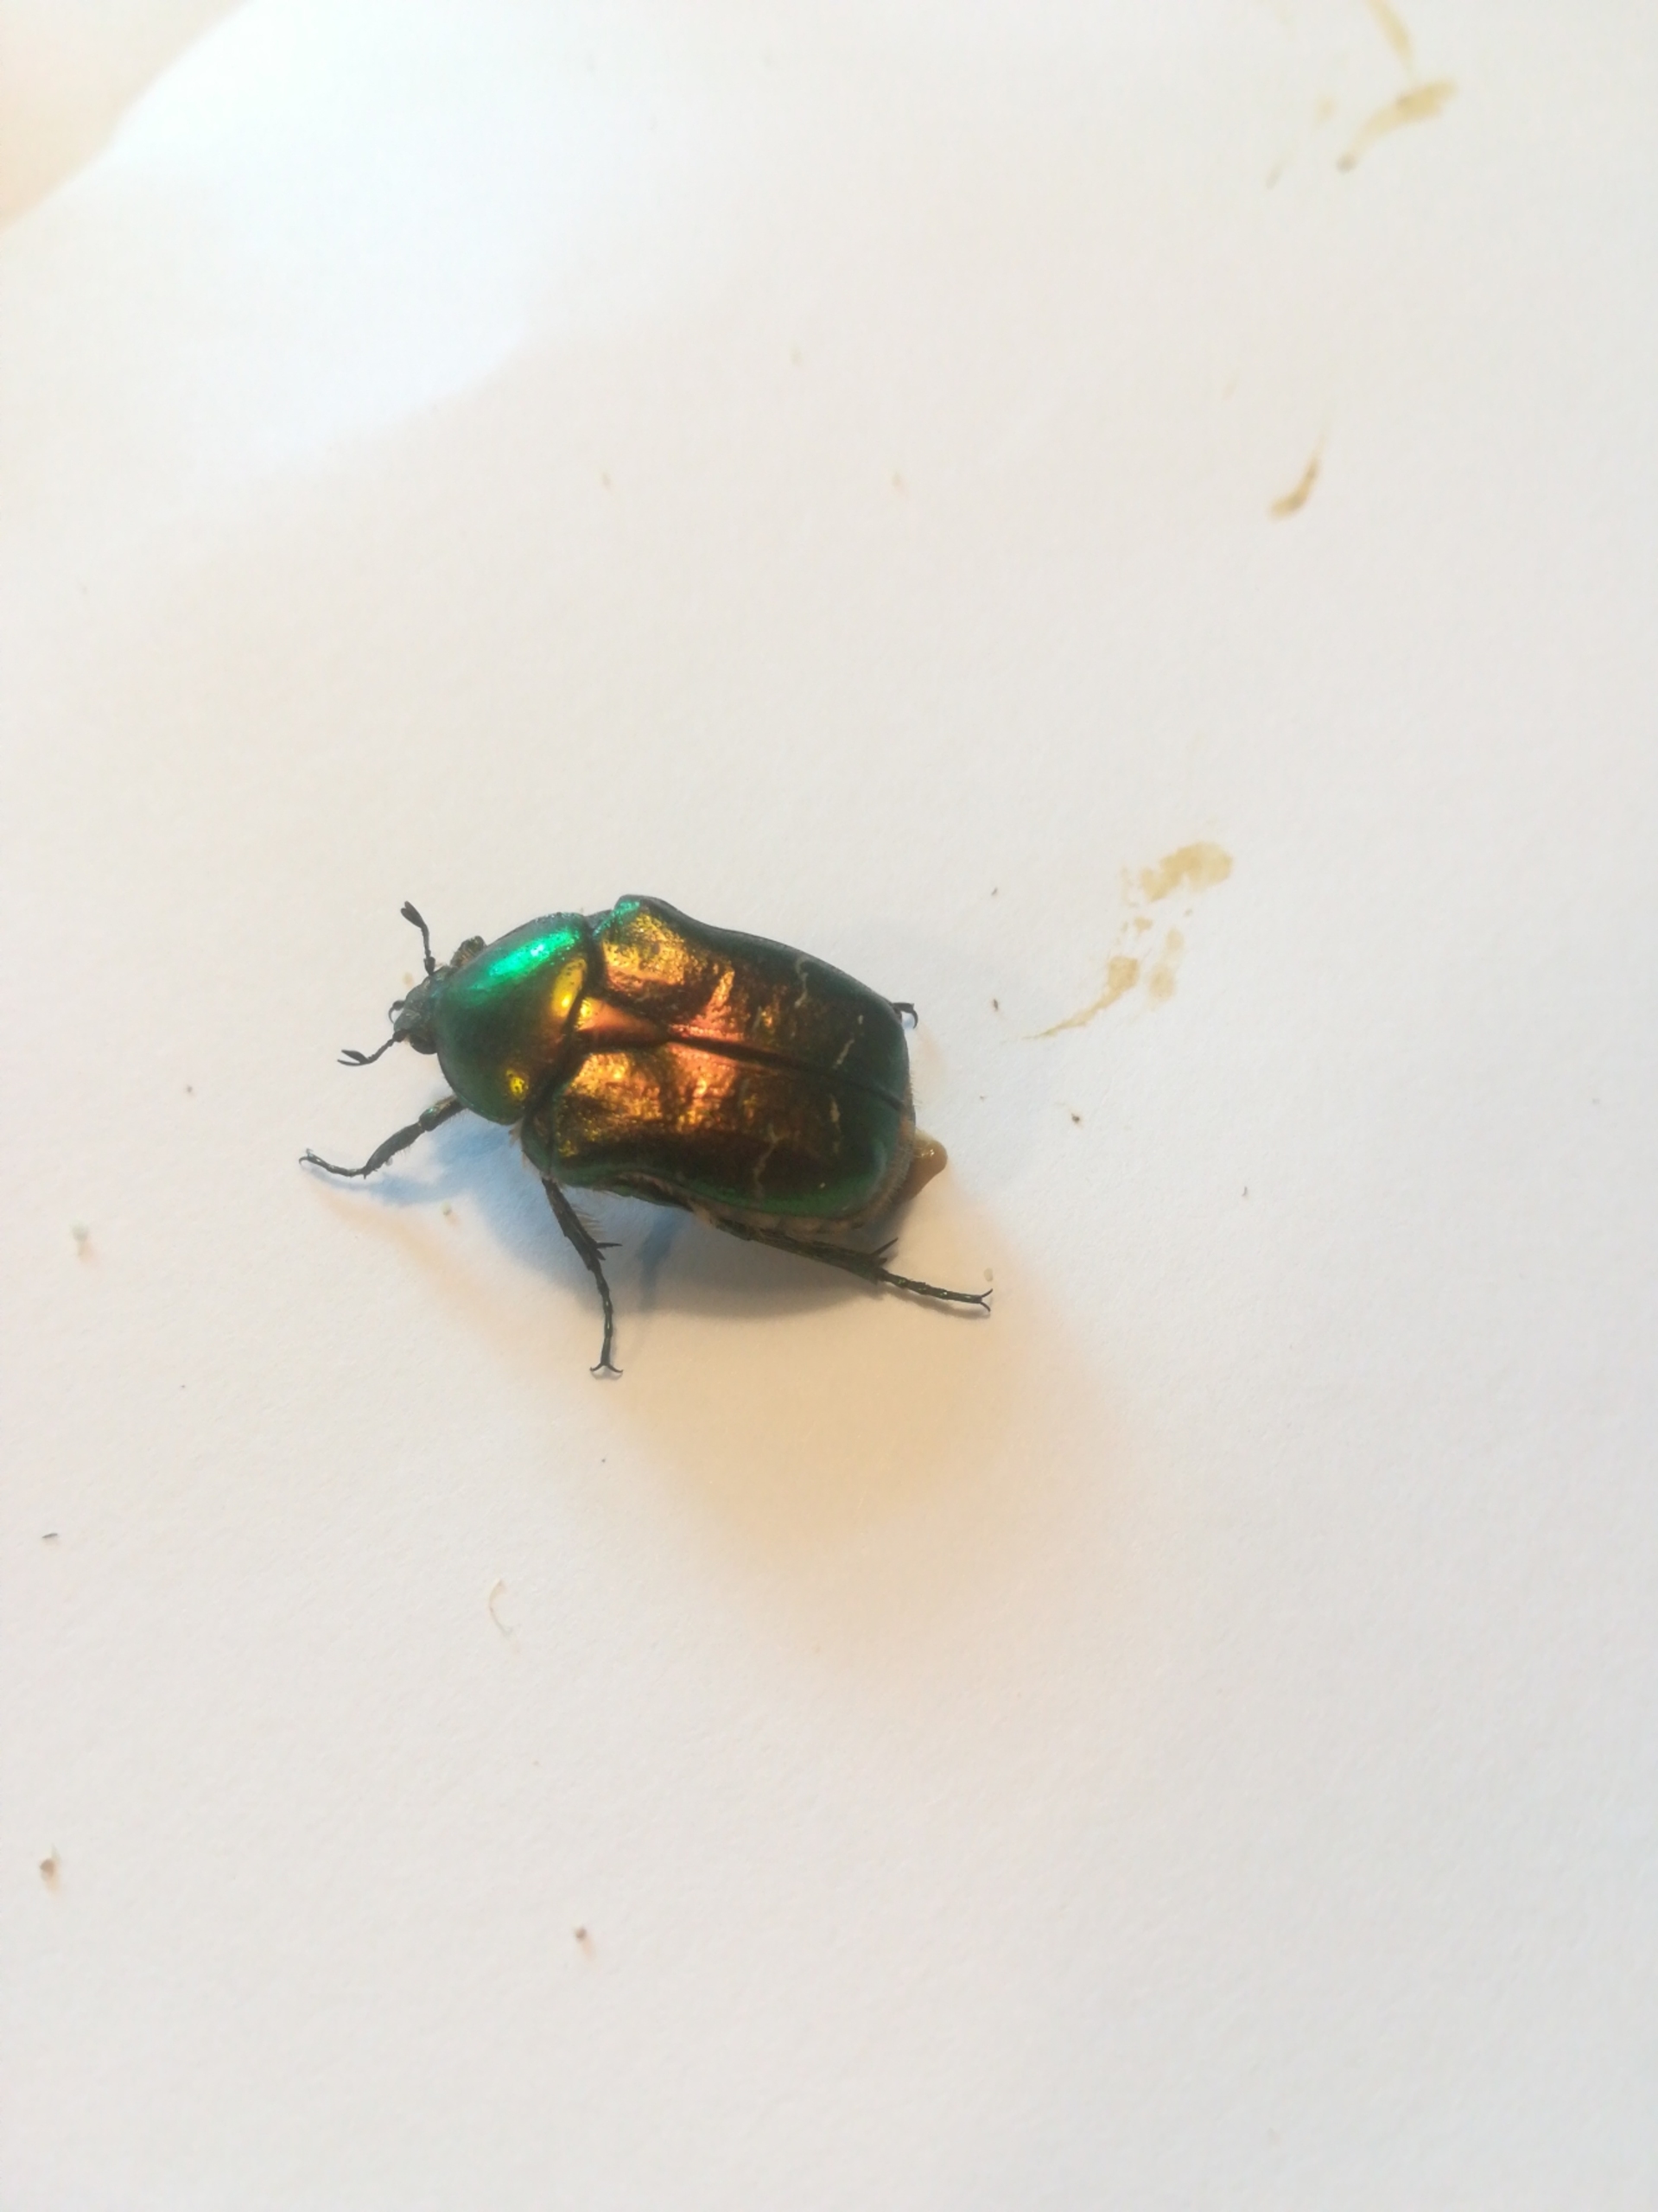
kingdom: Animalia
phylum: Arthropoda
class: Insecta
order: Coleoptera
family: Scarabaeidae
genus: Cetonia
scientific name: Cetonia aurata
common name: Grøn guldbasse
